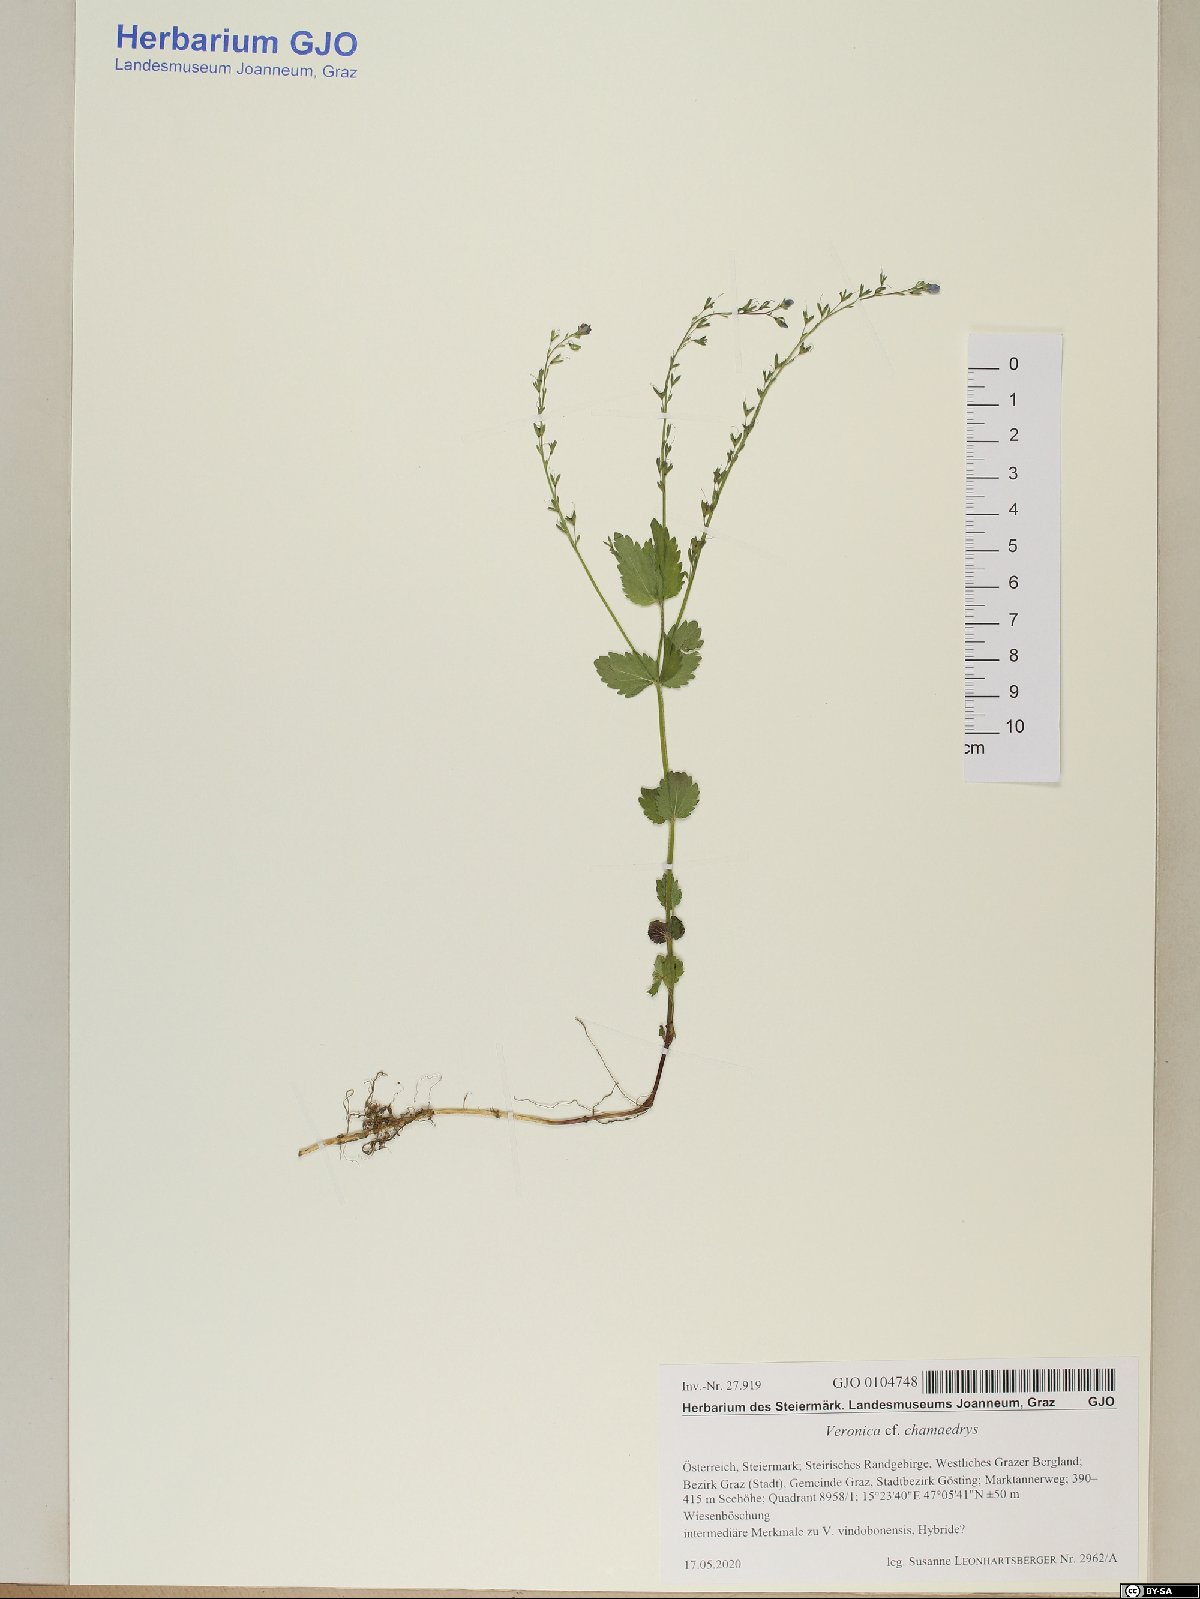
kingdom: Plantae
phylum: Tracheophyta
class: Magnoliopsida
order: Lamiales
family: Plantaginaceae
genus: Veronica
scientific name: Veronica chamaedrys
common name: Germander speedwell
